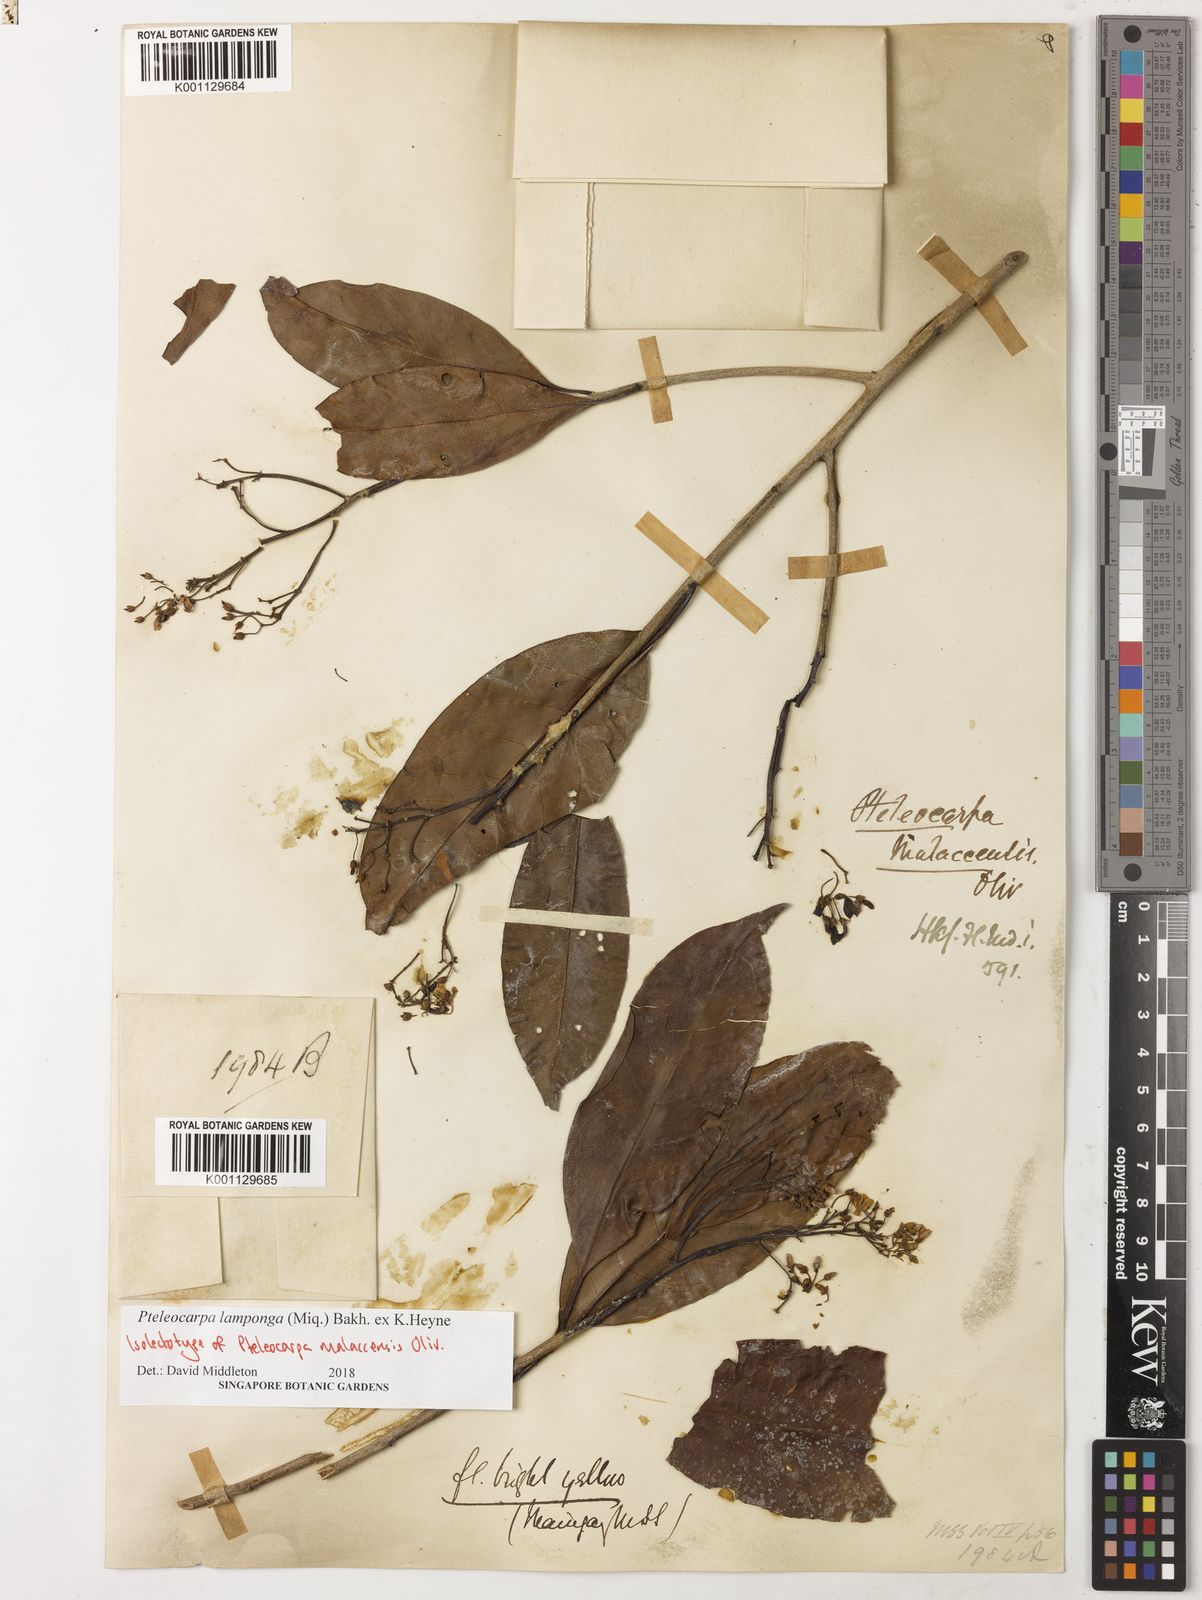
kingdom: Plantae
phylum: Tracheophyta
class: Magnoliopsida
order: Gentianales
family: Gelsemiaceae
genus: Pteleocarpa
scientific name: Pteleocarpa lamponga
